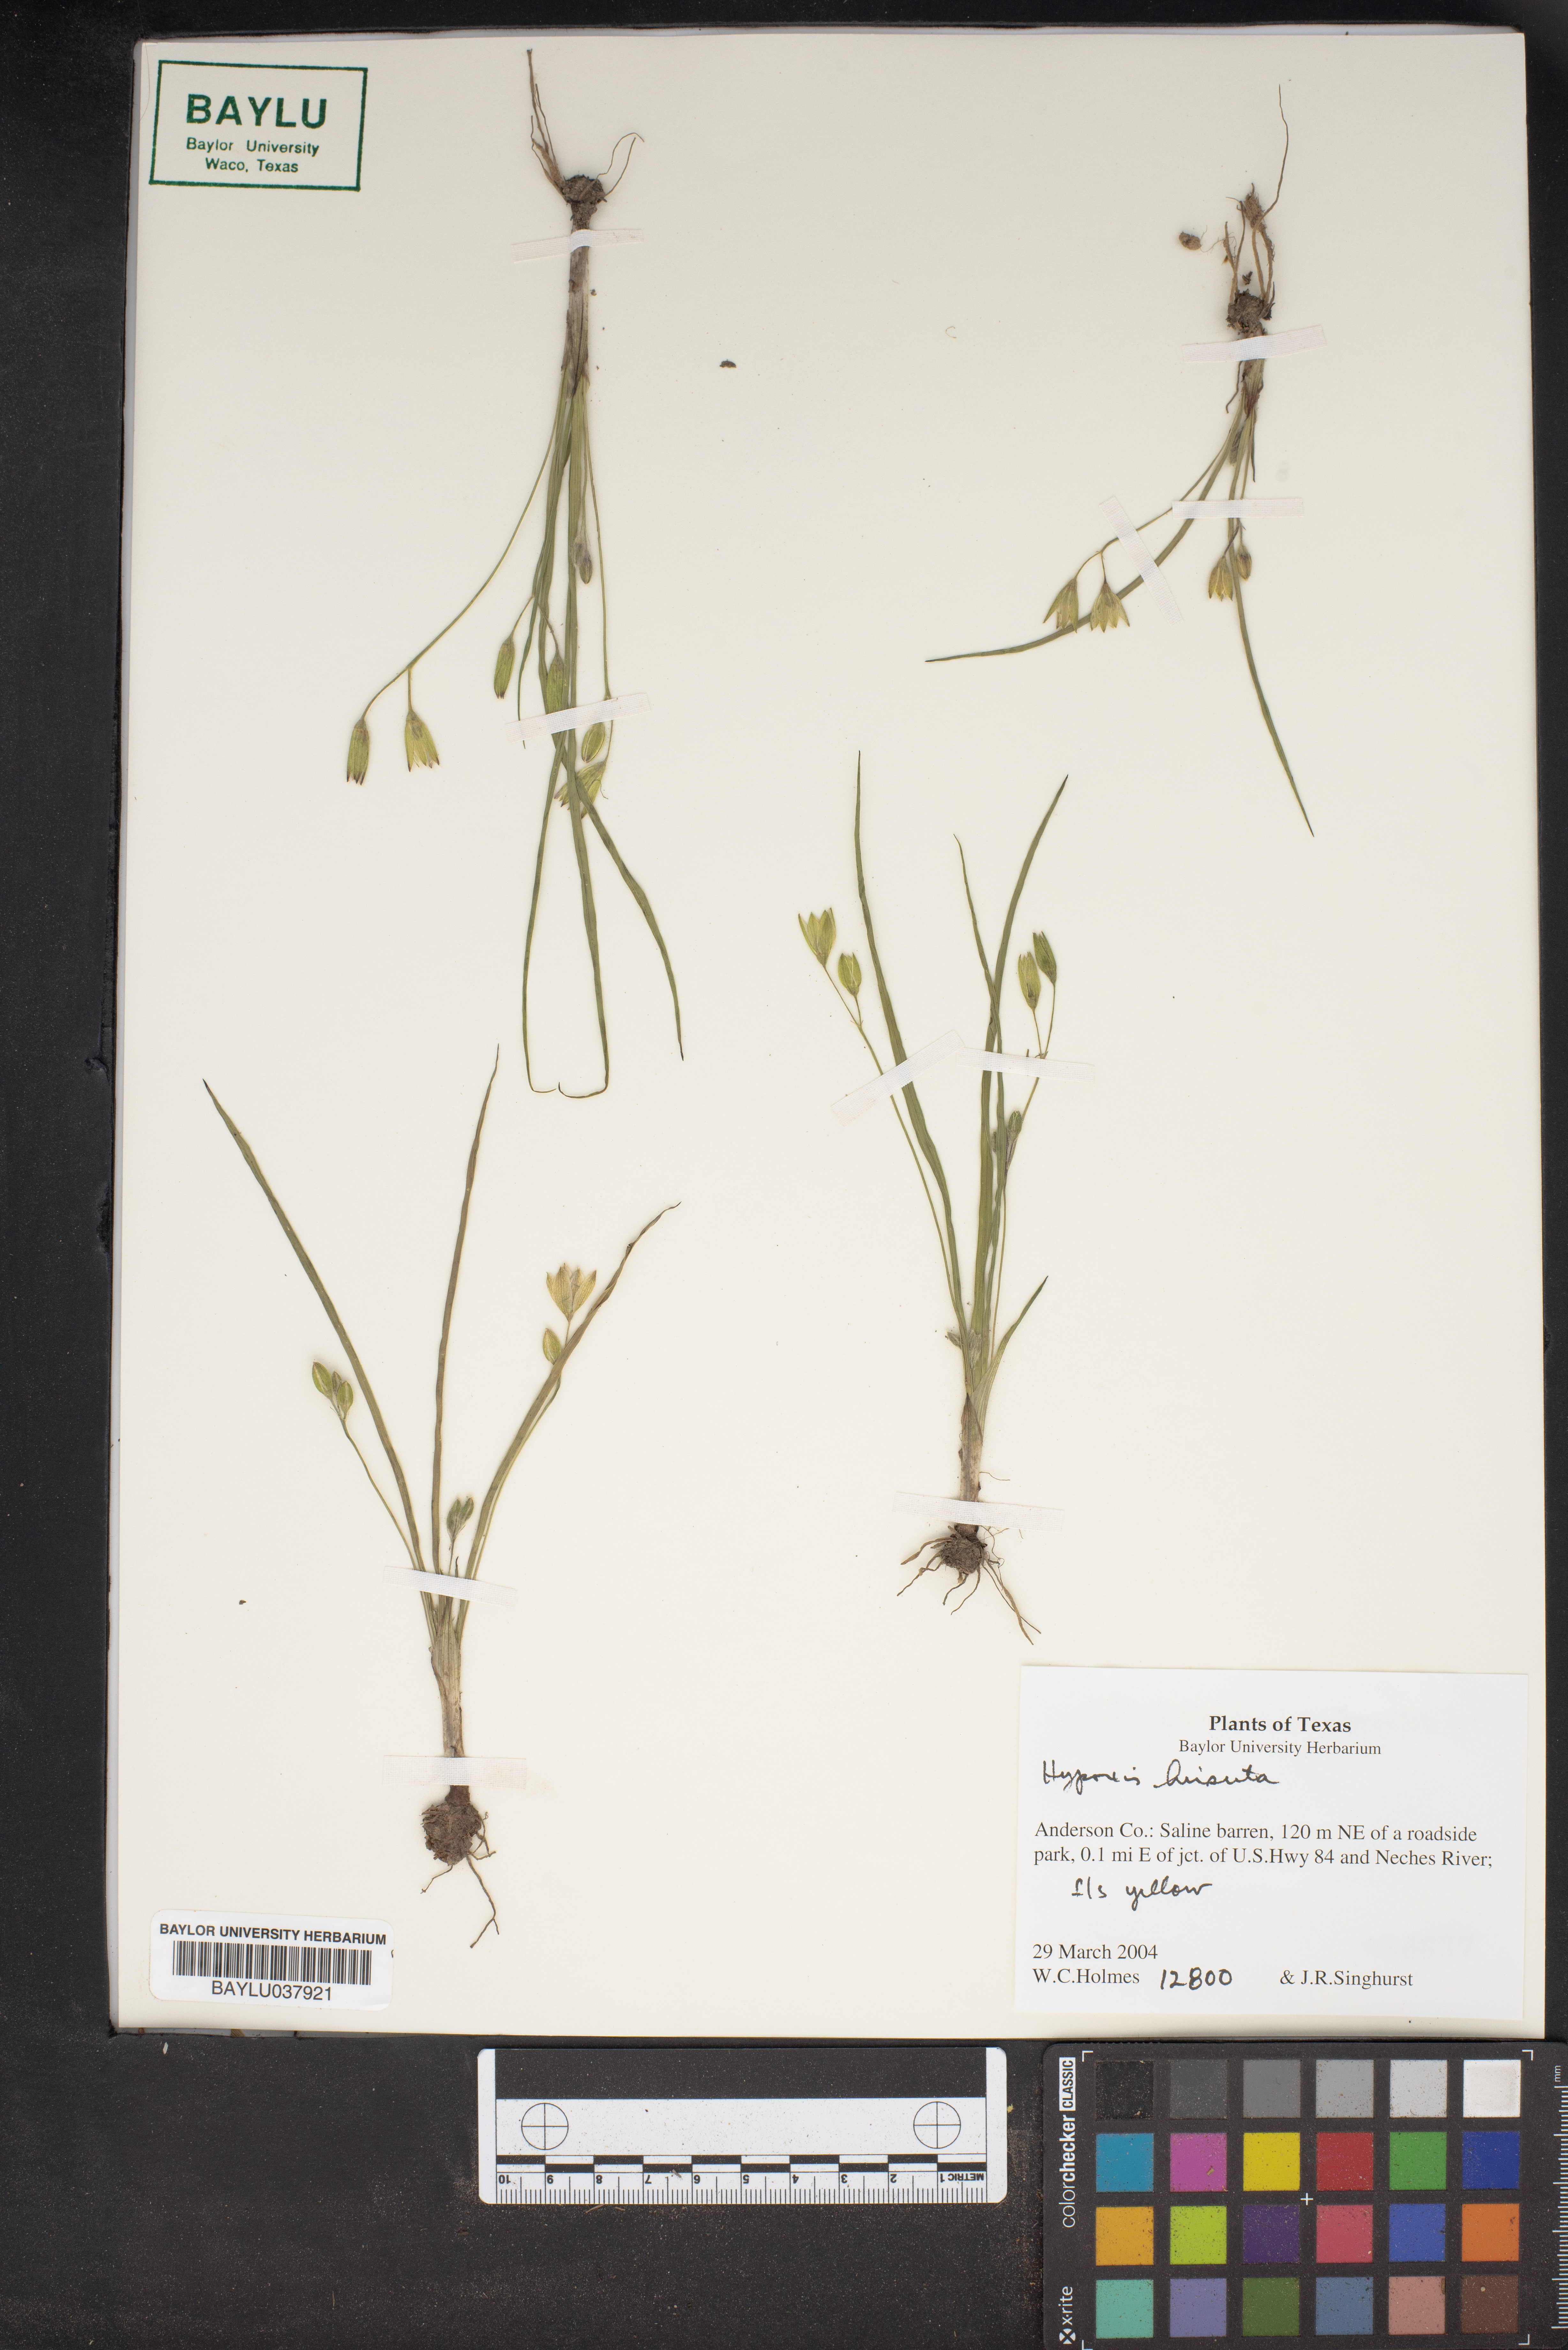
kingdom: Plantae
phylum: Tracheophyta
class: Liliopsida
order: Asparagales
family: Hypoxidaceae
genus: Hypoxis
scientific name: Hypoxis hirsuta
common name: Common goldstar
